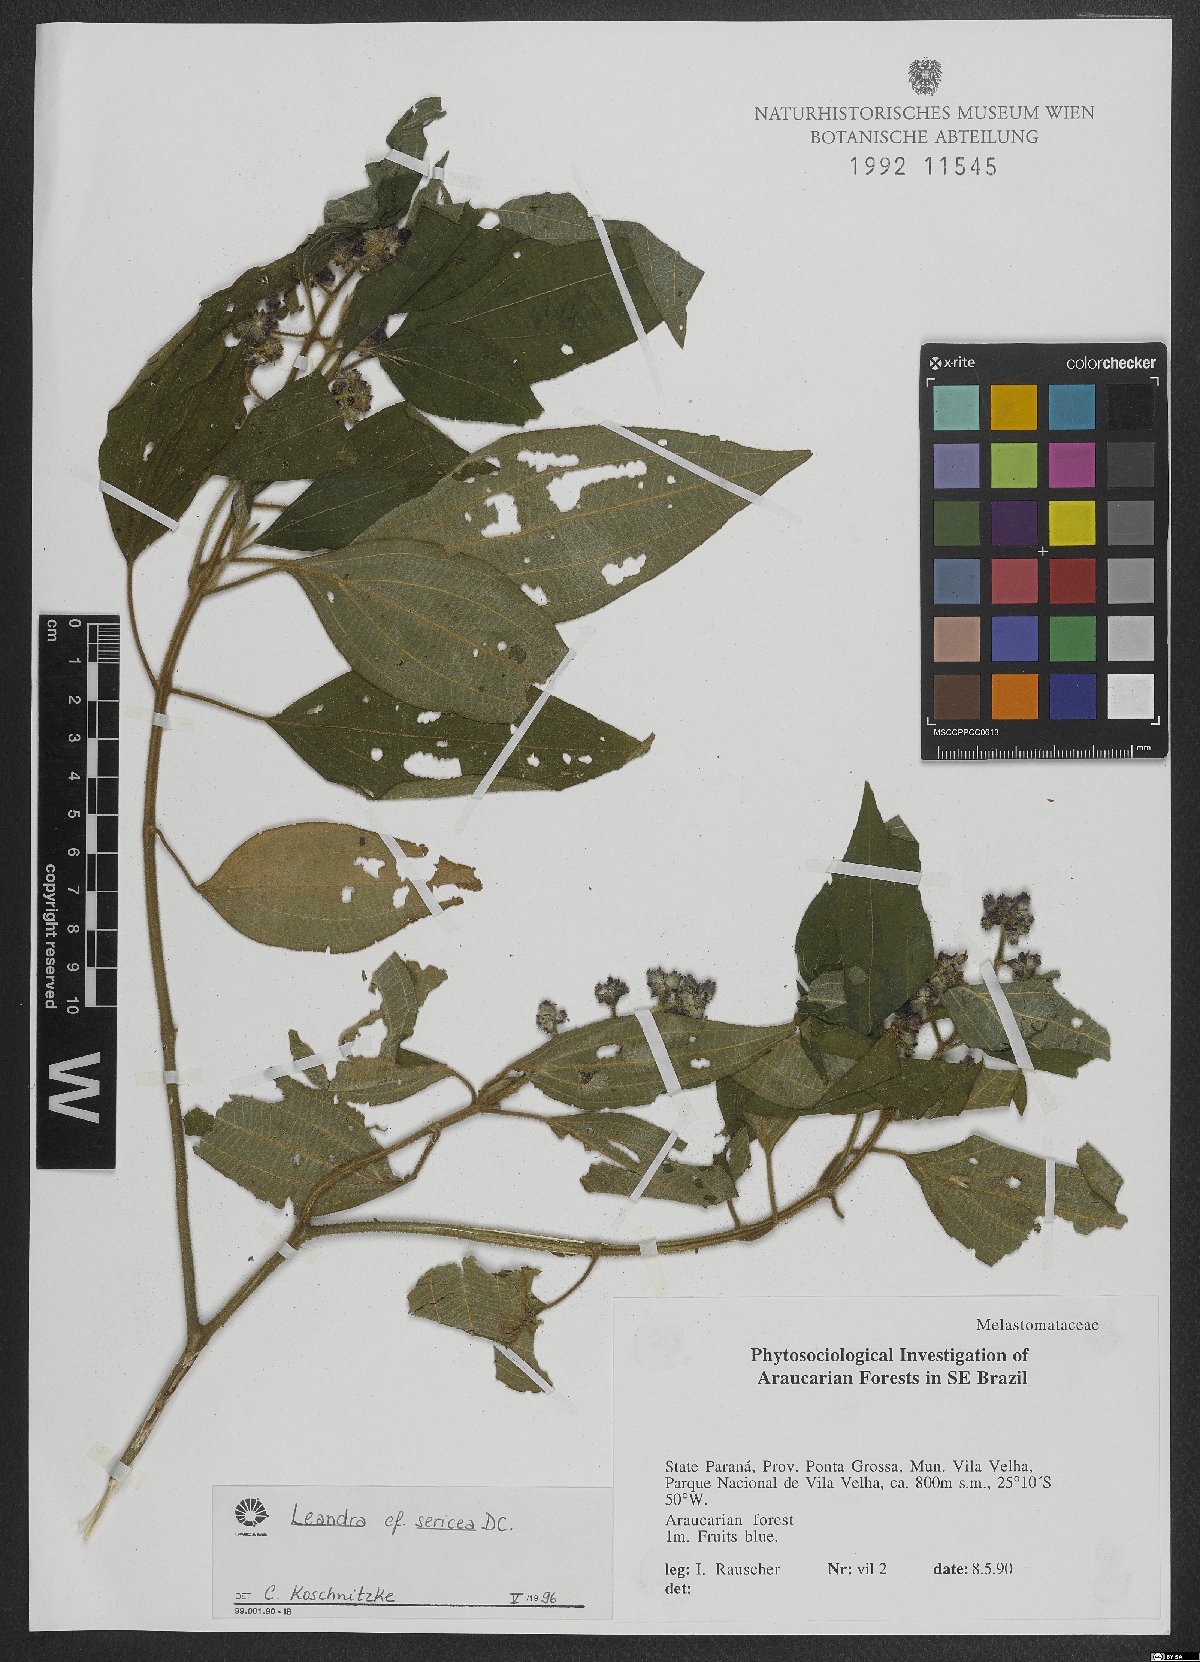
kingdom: Plantae
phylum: Tracheophyta
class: Magnoliopsida
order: Myrtales
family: Melastomataceae
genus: Miconia
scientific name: Miconia raddii
